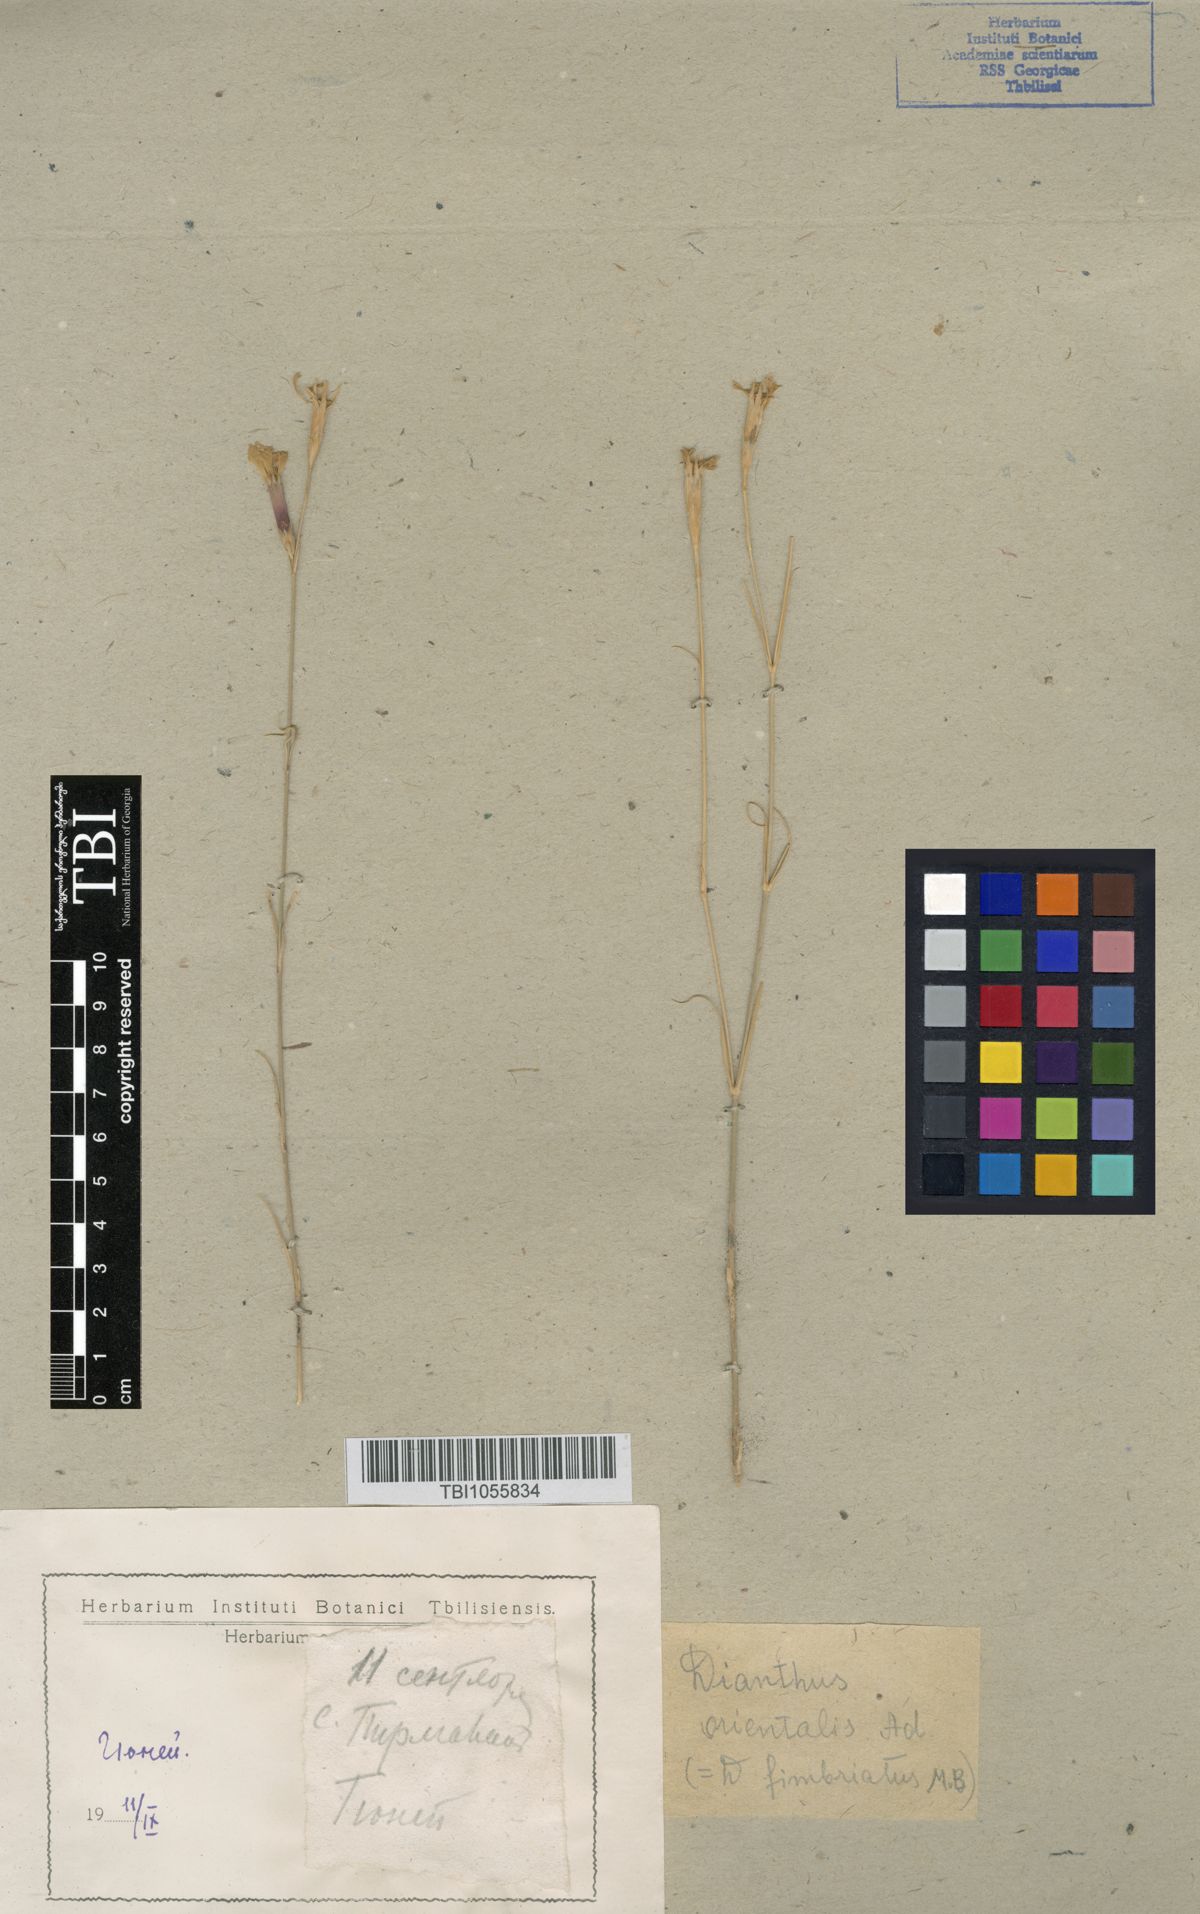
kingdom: Plantae
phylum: Tracheophyta
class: Magnoliopsida
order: Caryophyllales
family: Caryophyllaceae
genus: Dianthus
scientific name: Dianthus orientalis
